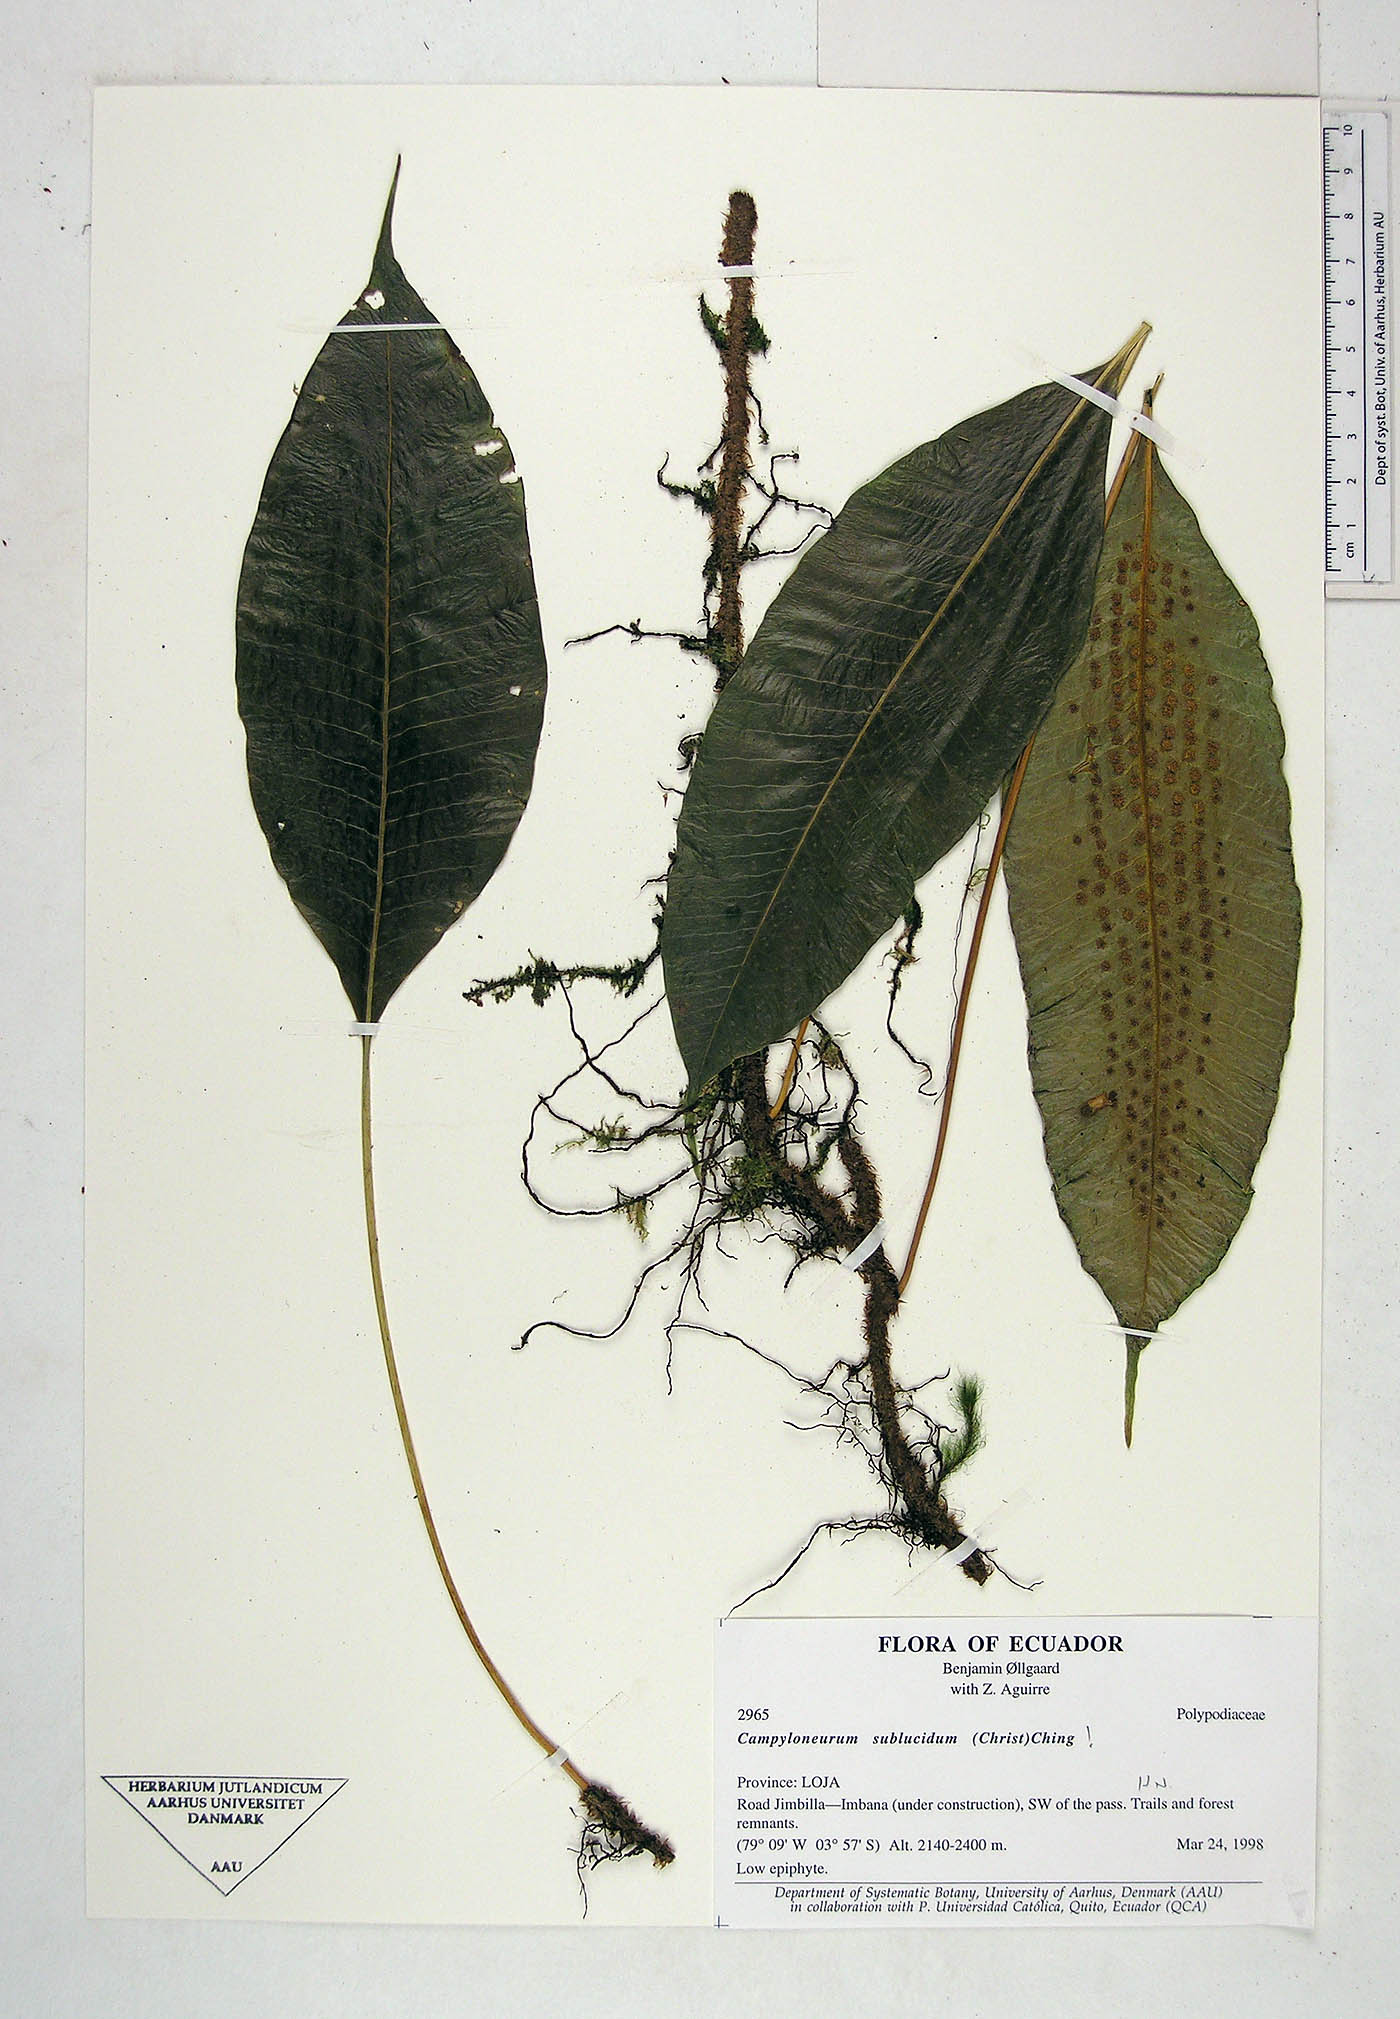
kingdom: Plantae
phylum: Tracheophyta
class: Polypodiopsida
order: Polypodiales
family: Polypodiaceae
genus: Campyloneurum
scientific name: Campyloneurum sublucidum
